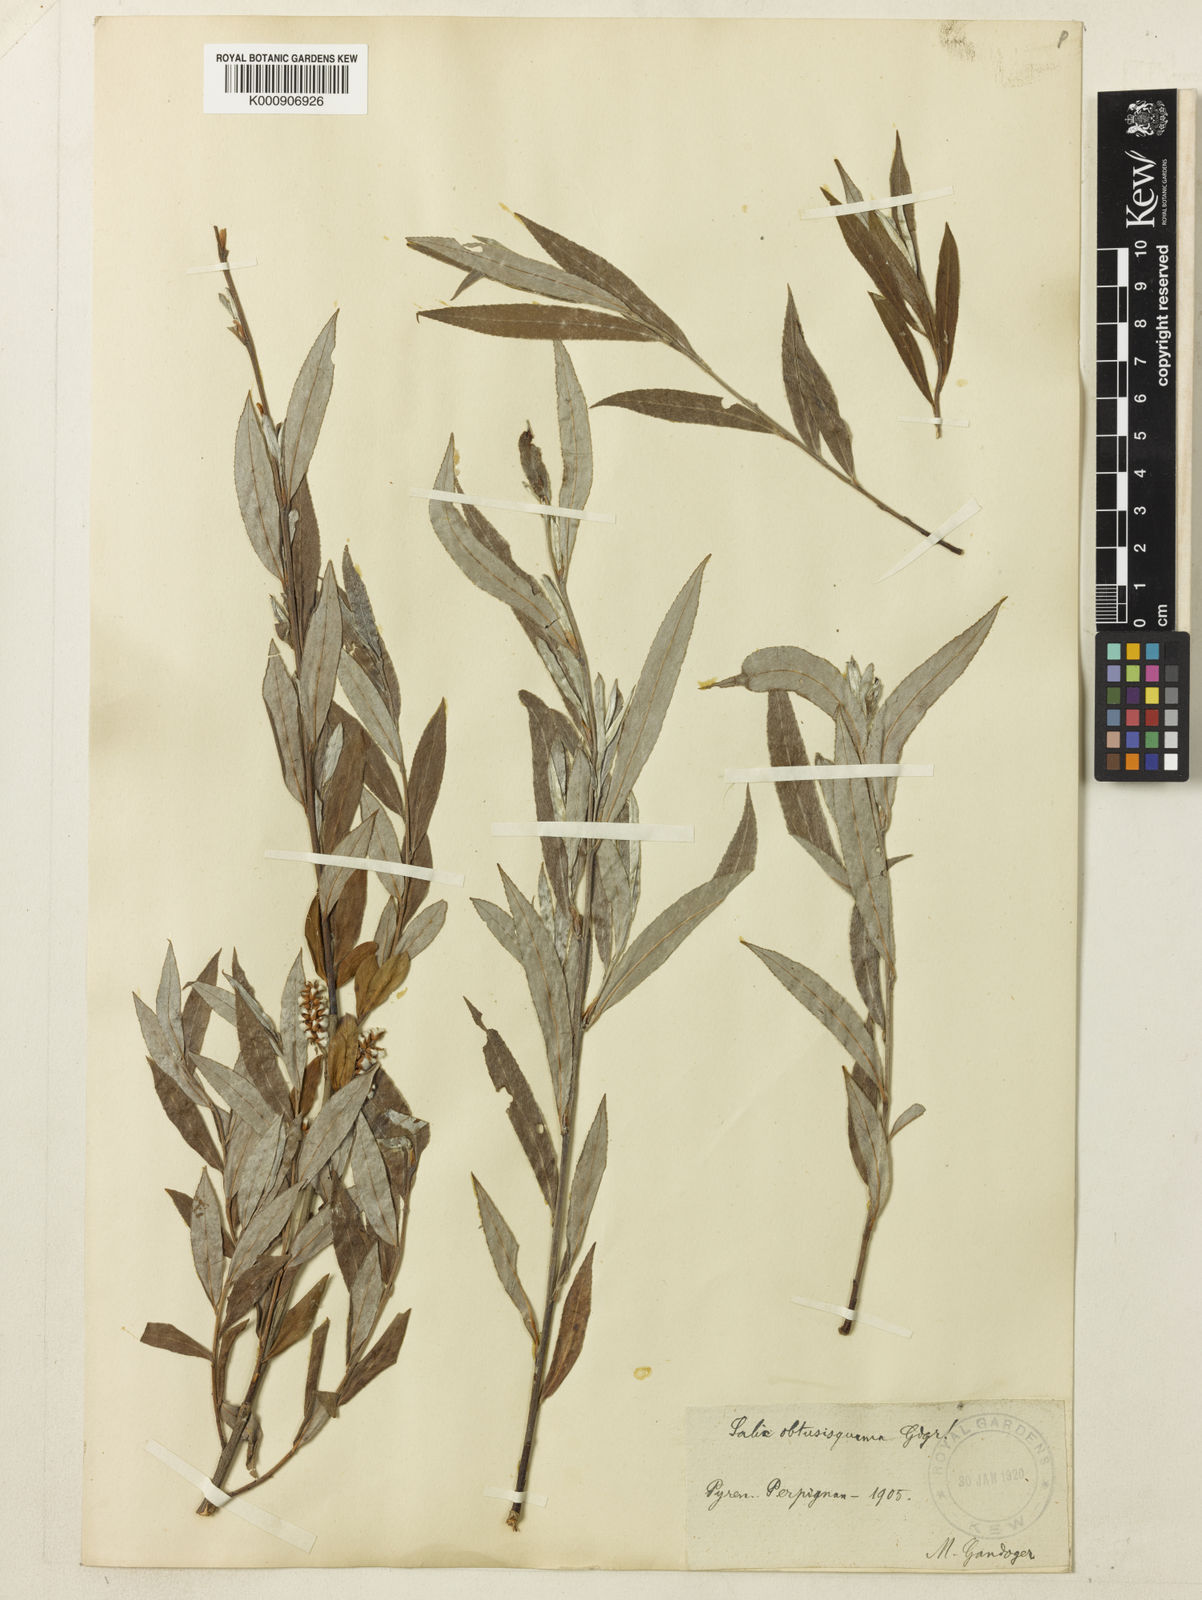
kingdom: Plantae
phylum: Tracheophyta
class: Magnoliopsida
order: Malpighiales
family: Salicaceae
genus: Salix
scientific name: Salix alba
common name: White willow
